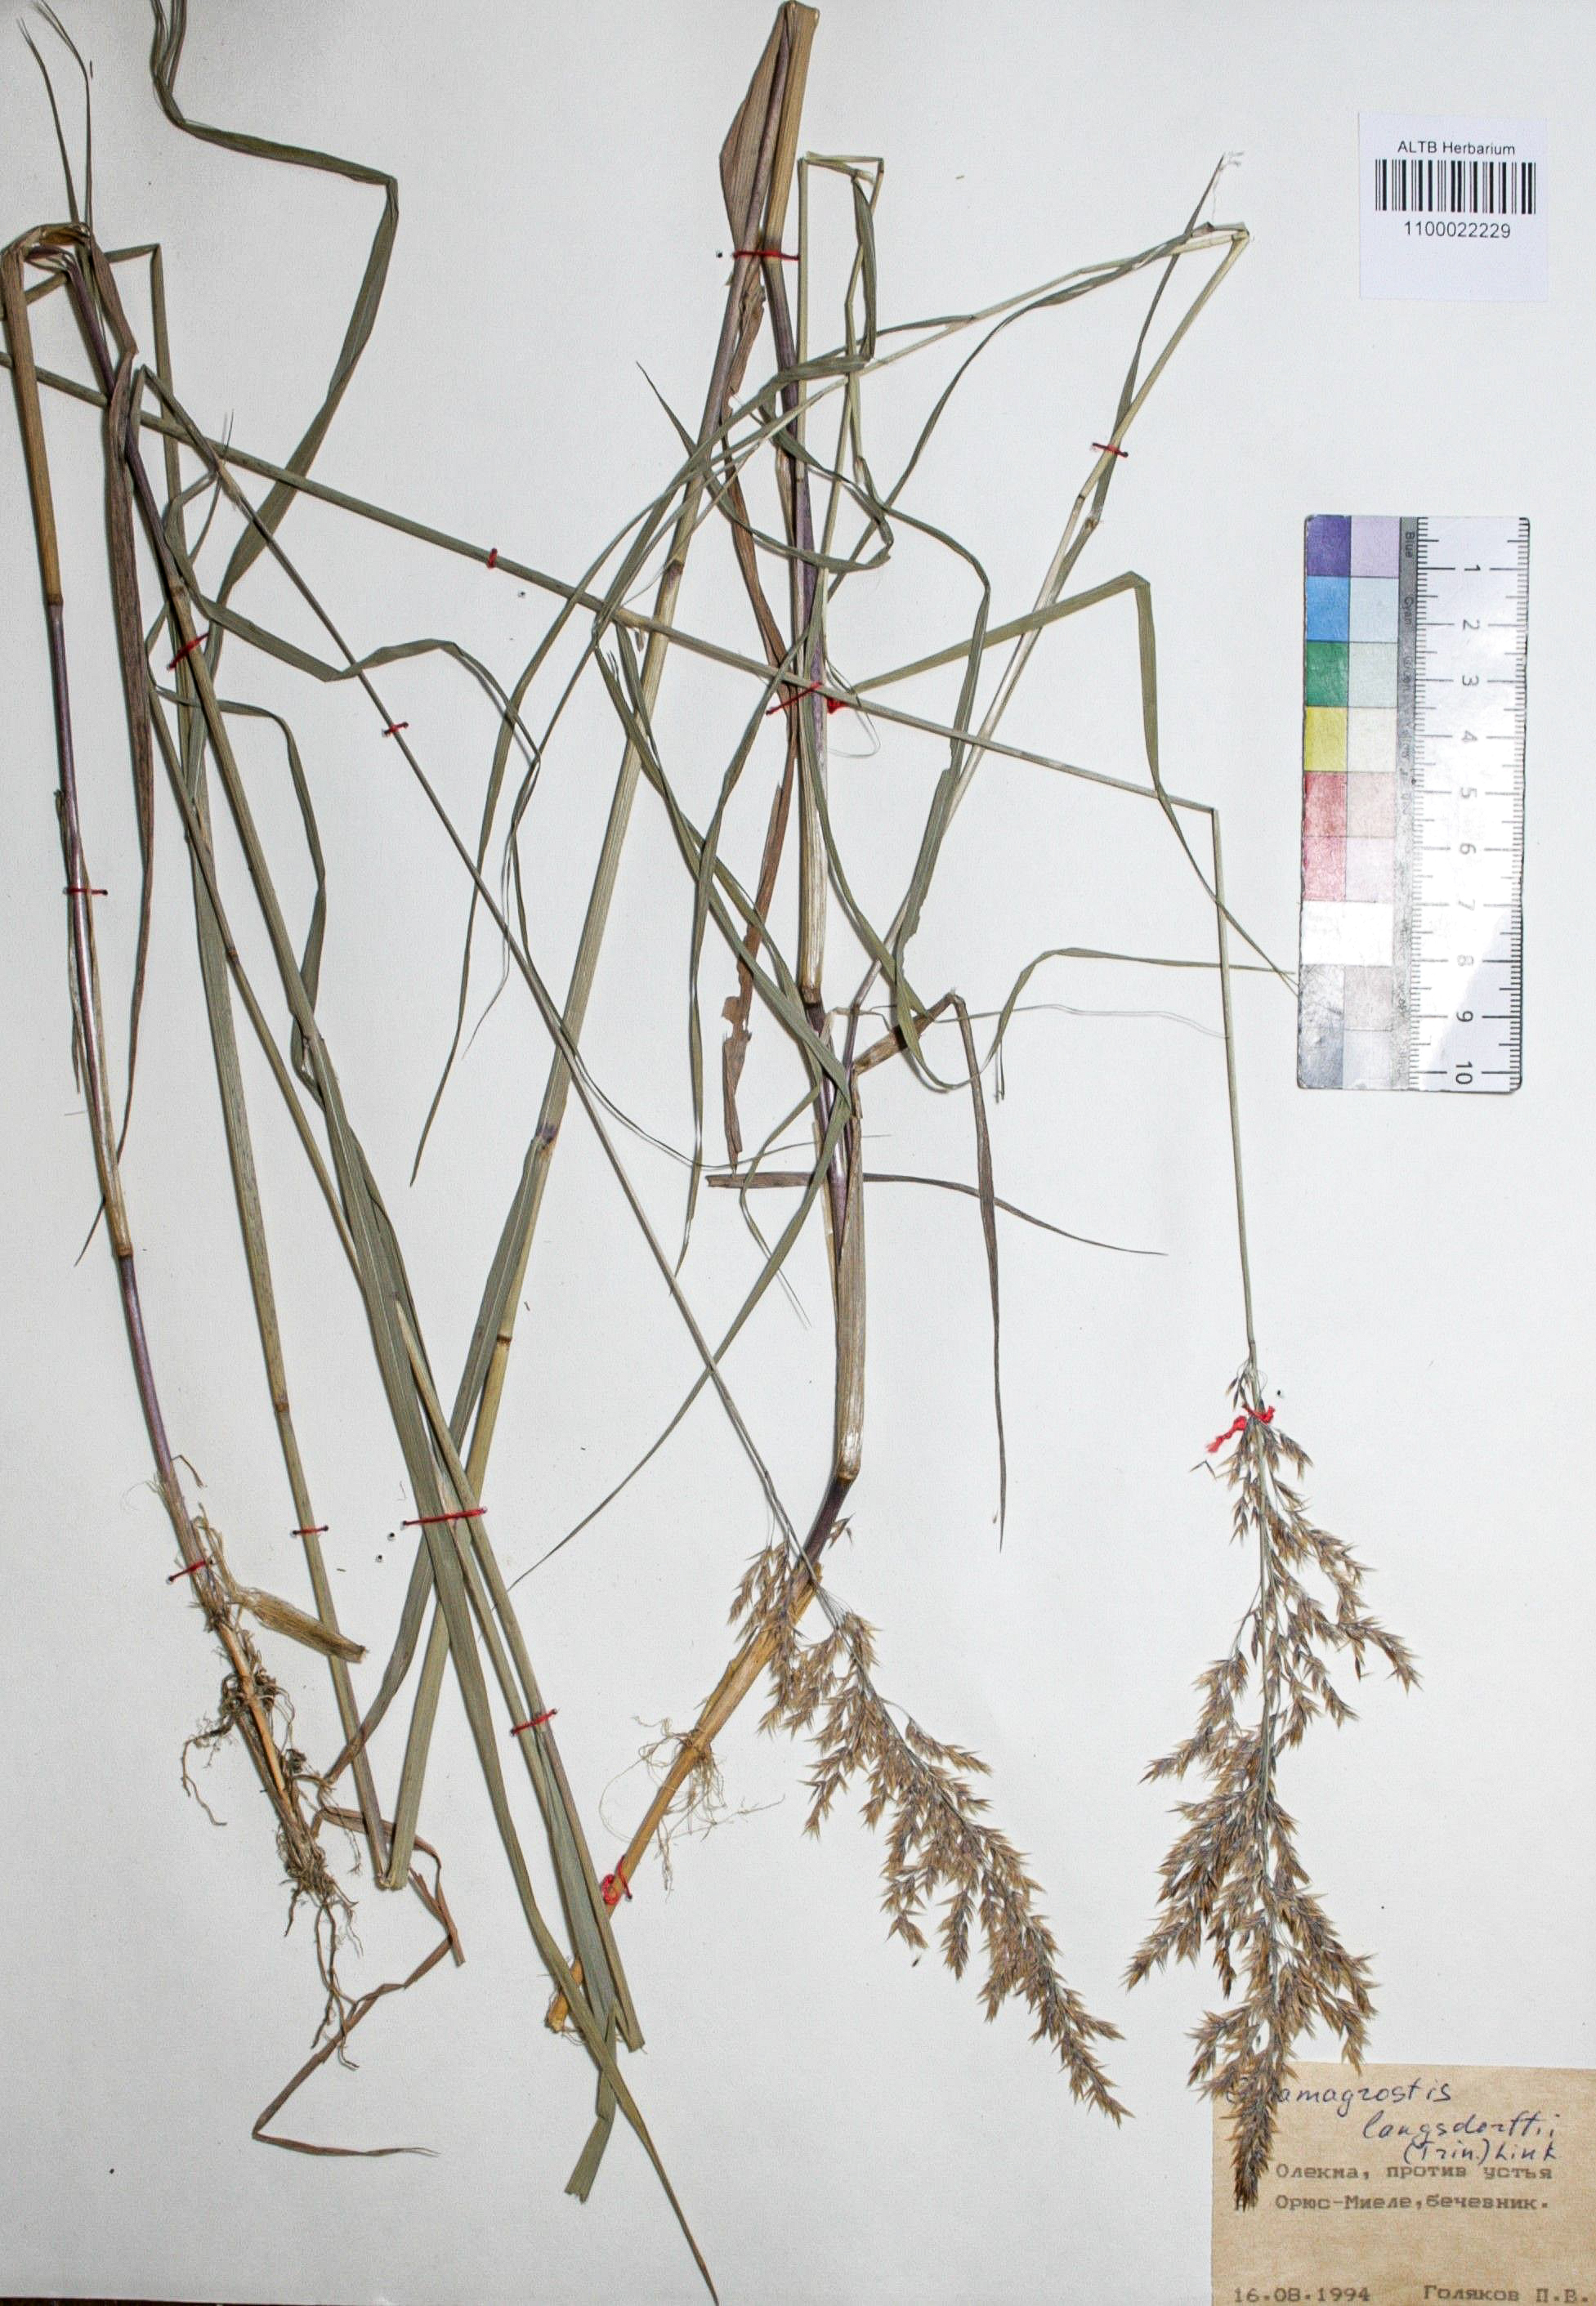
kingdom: Plantae
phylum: Tracheophyta
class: Liliopsida
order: Poales
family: Poaceae
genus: Calamagrostis
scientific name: Calamagrostis purpurea
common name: Scandinavian small-reed
